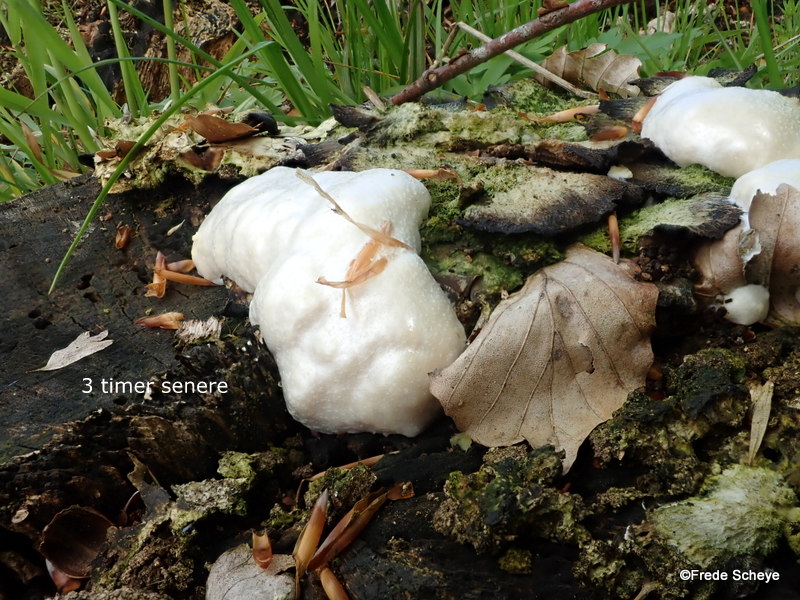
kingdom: Protozoa
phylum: Mycetozoa
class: Myxomycetes
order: Cribrariales
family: Tubiferaceae
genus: Reticularia
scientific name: Reticularia lycoperdon
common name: skinnende støvpude
